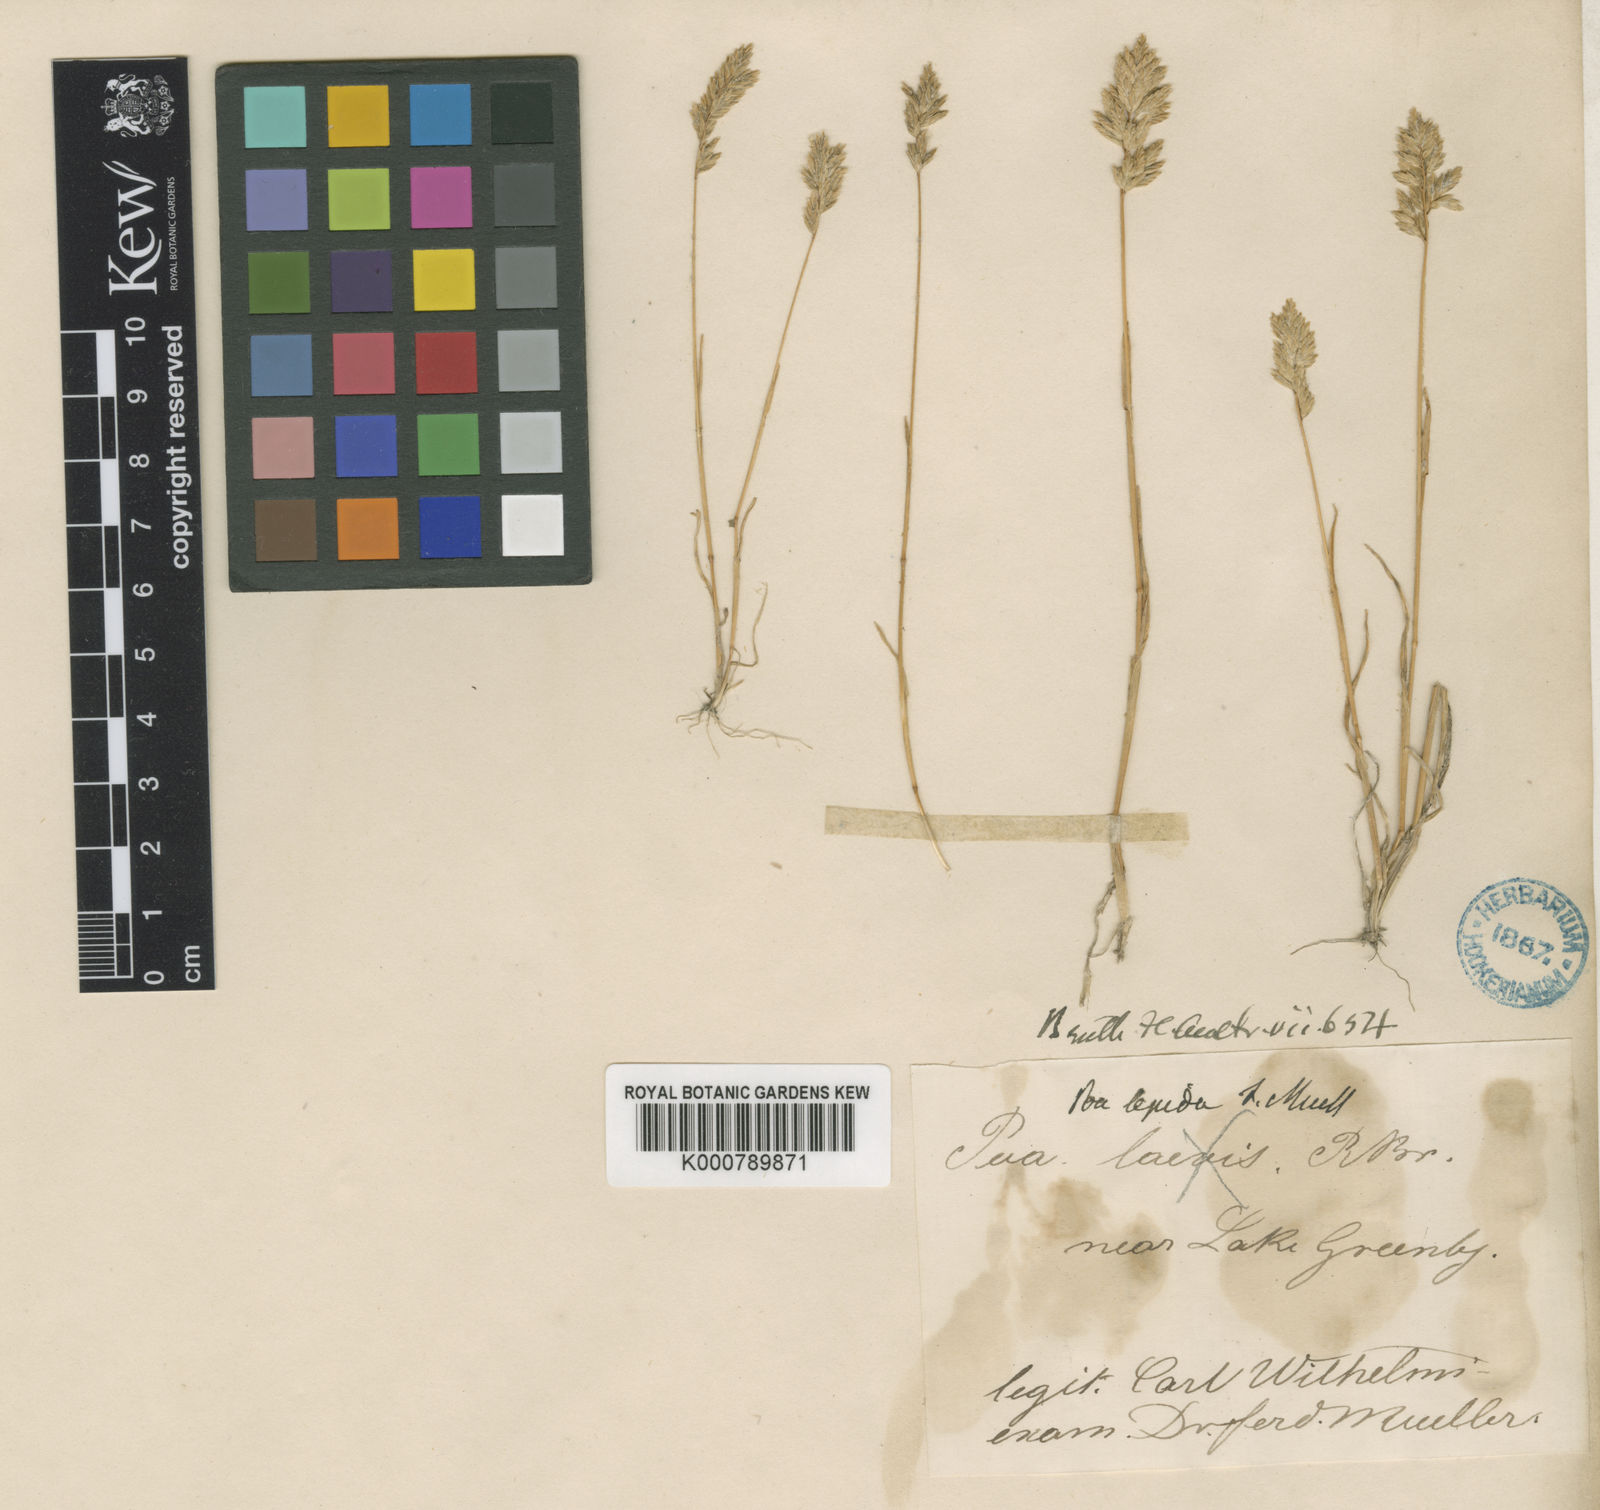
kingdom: Plantae
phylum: Tracheophyta
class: Liliopsida
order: Poales
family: Poaceae
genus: Poa
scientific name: Poa fax
